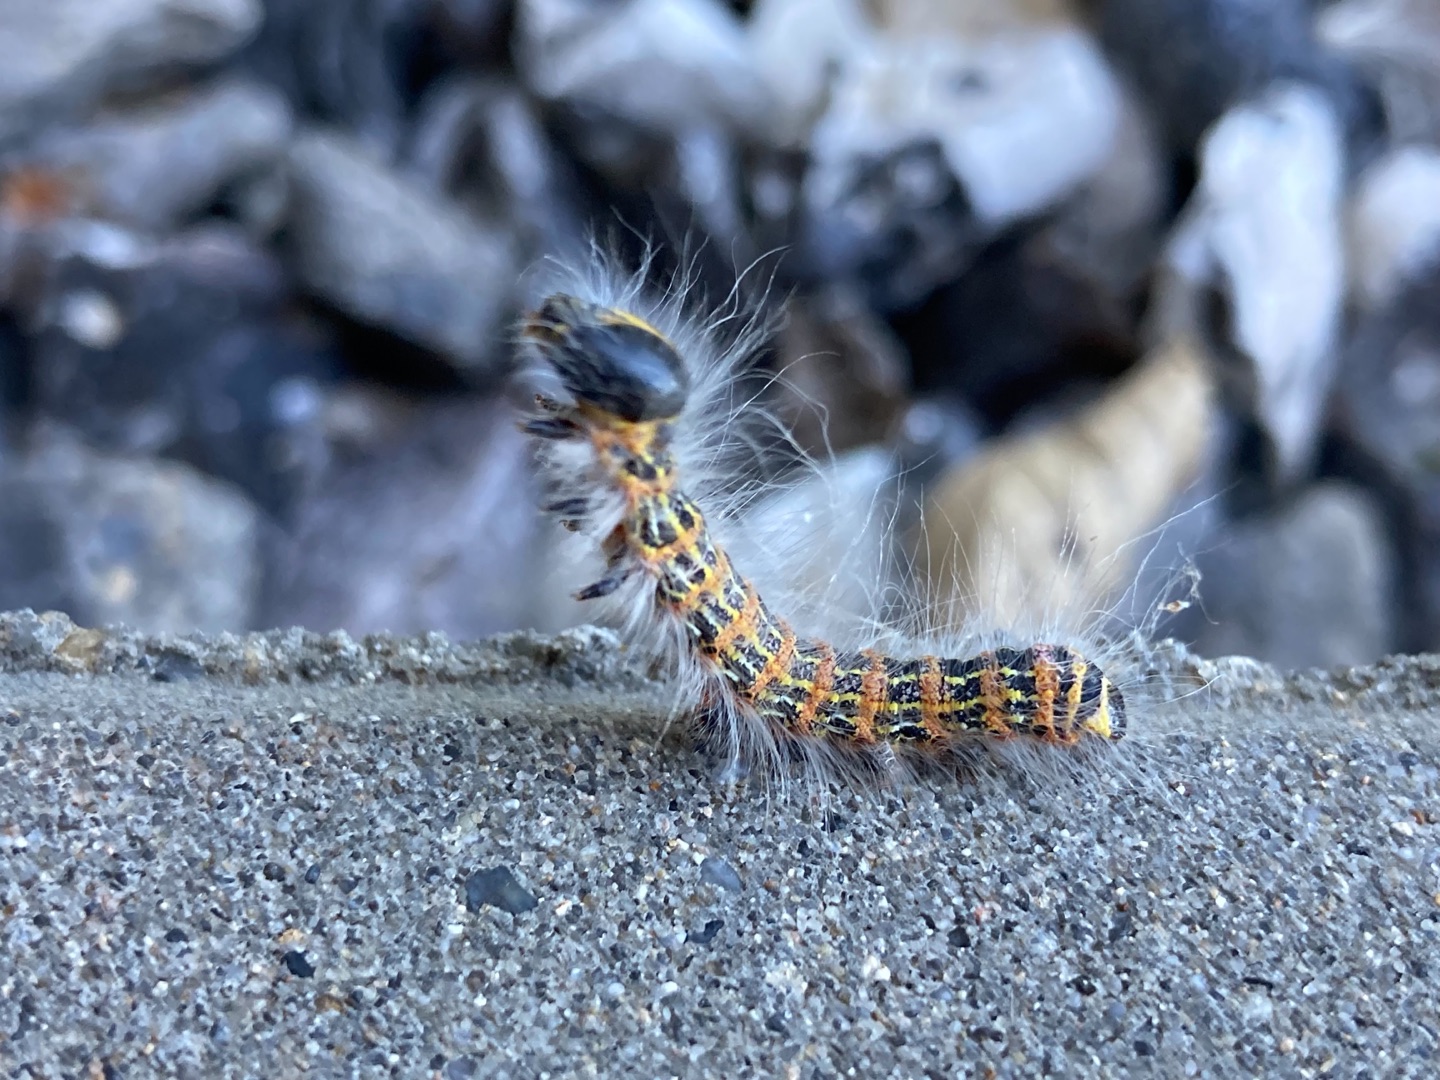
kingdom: Animalia
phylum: Arthropoda
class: Insecta
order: Lepidoptera
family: Notodontidae
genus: Phalera
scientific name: Phalera bucephala
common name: Måneplet
